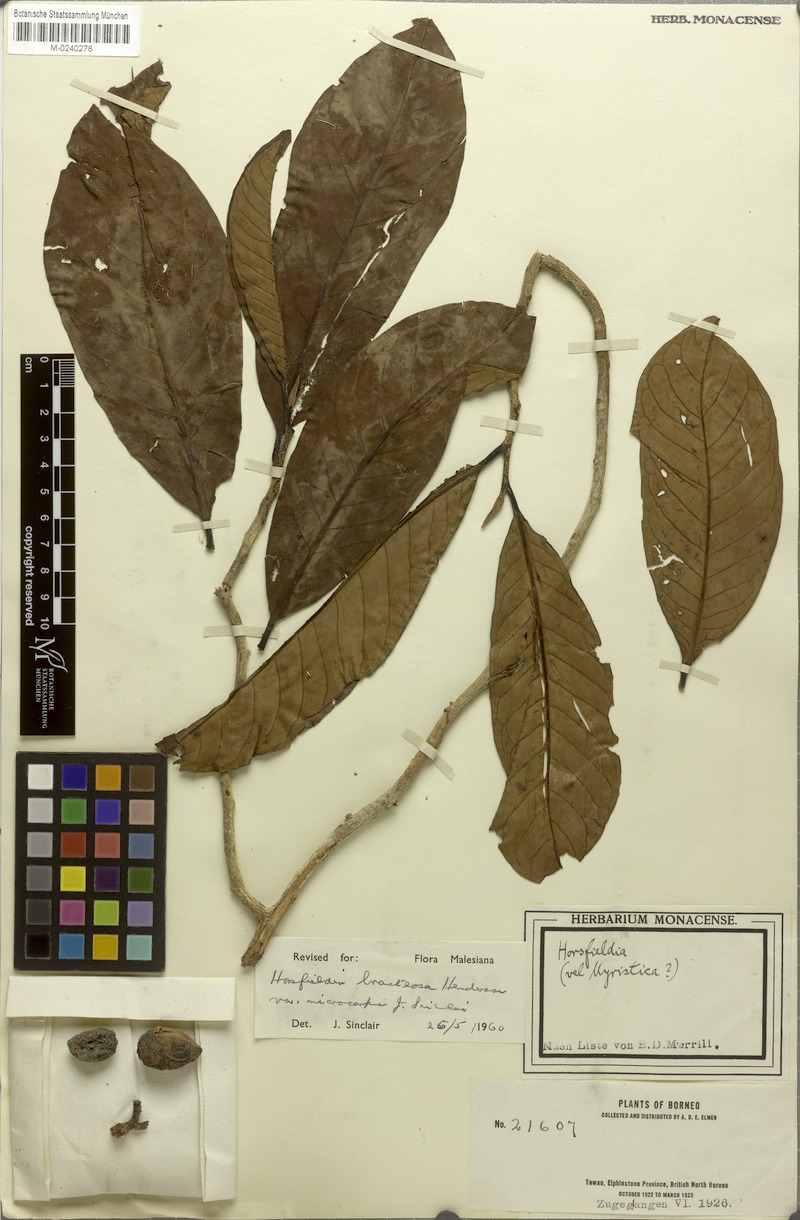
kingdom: Plantae
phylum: Tracheophyta
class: Magnoliopsida
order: Magnoliales
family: Myristicaceae
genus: Horsfieldia
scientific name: Horsfieldia sucosa
